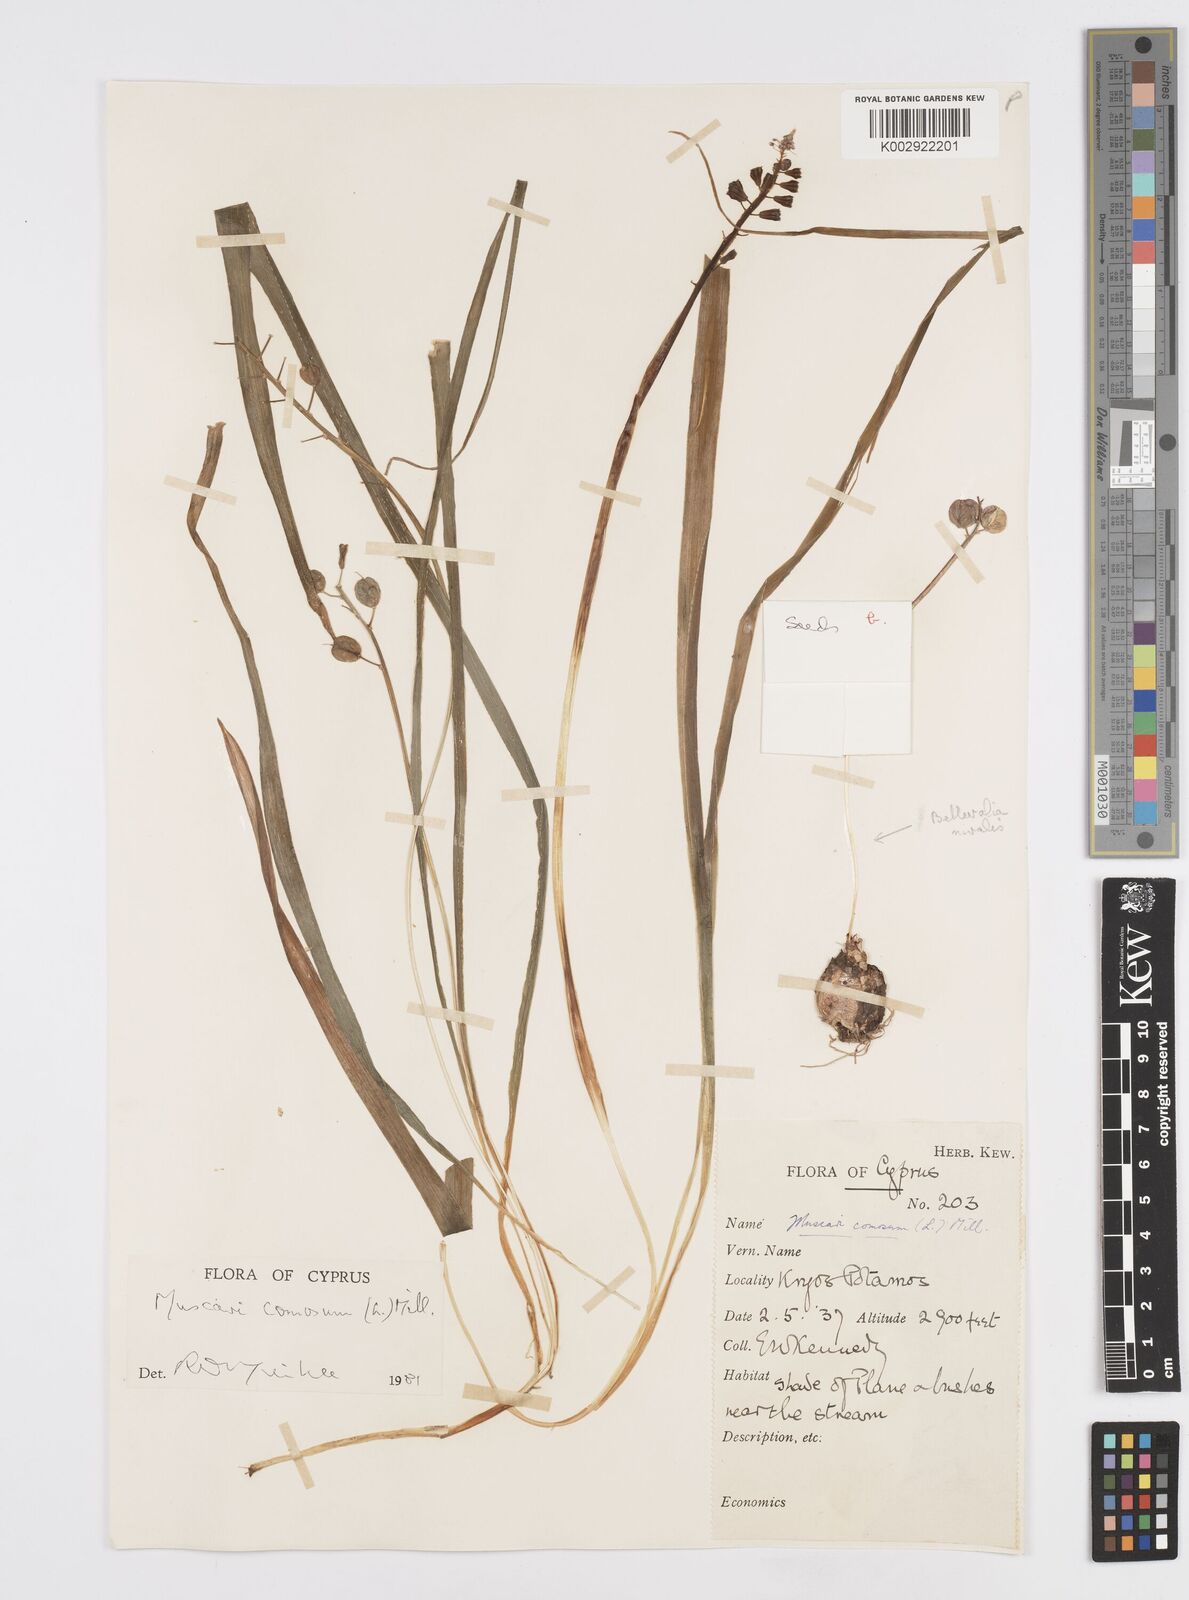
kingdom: Plantae
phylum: Tracheophyta
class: Liliopsida
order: Asparagales
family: Asparagaceae
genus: Muscari
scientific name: Muscari comosum
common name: Tassel hyacinth
